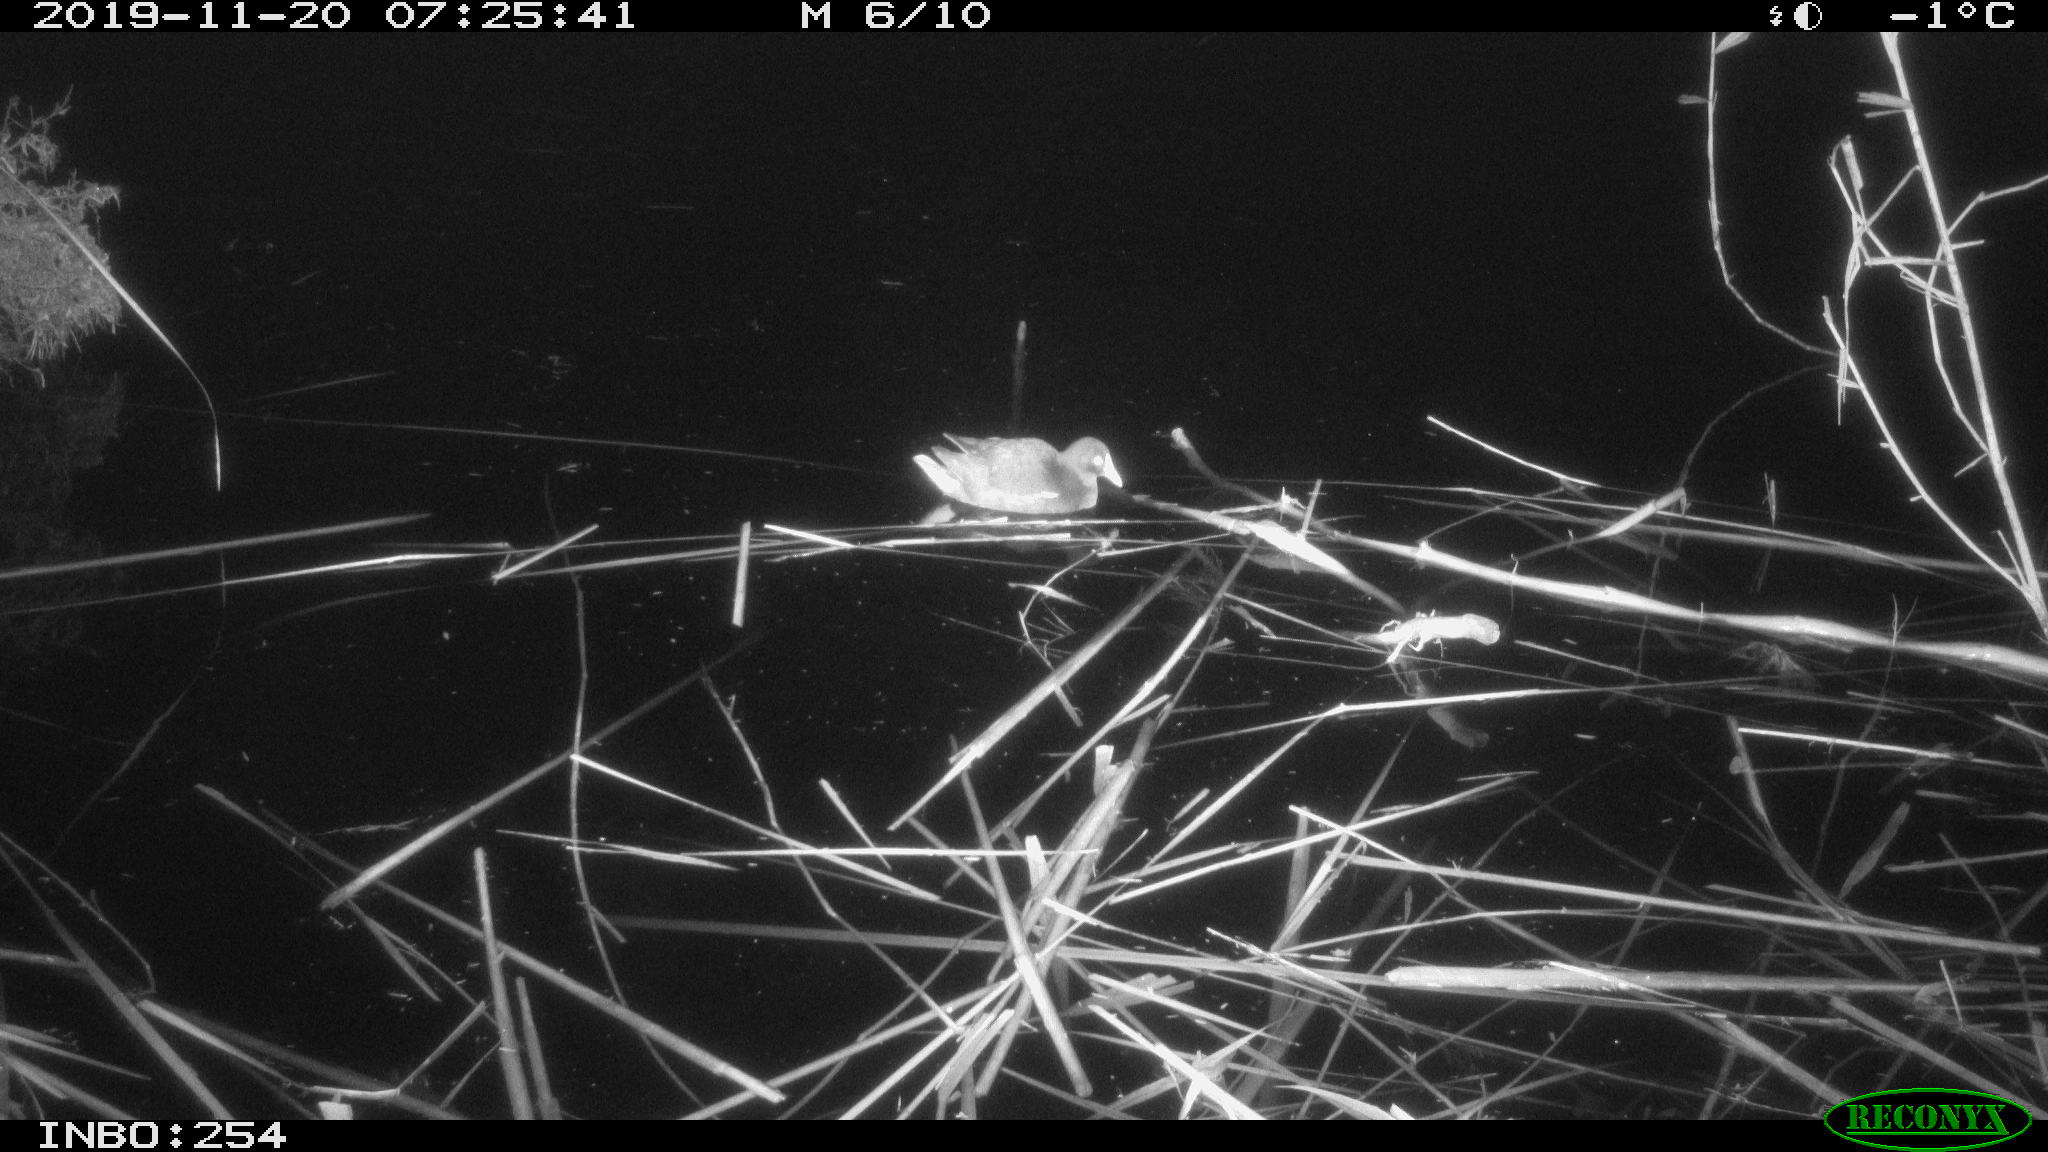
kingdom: Animalia
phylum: Chordata
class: Aves
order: Gruiformes
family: Rallidae
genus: Gallinula
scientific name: Gallinula chloropus
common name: Common moorhen
